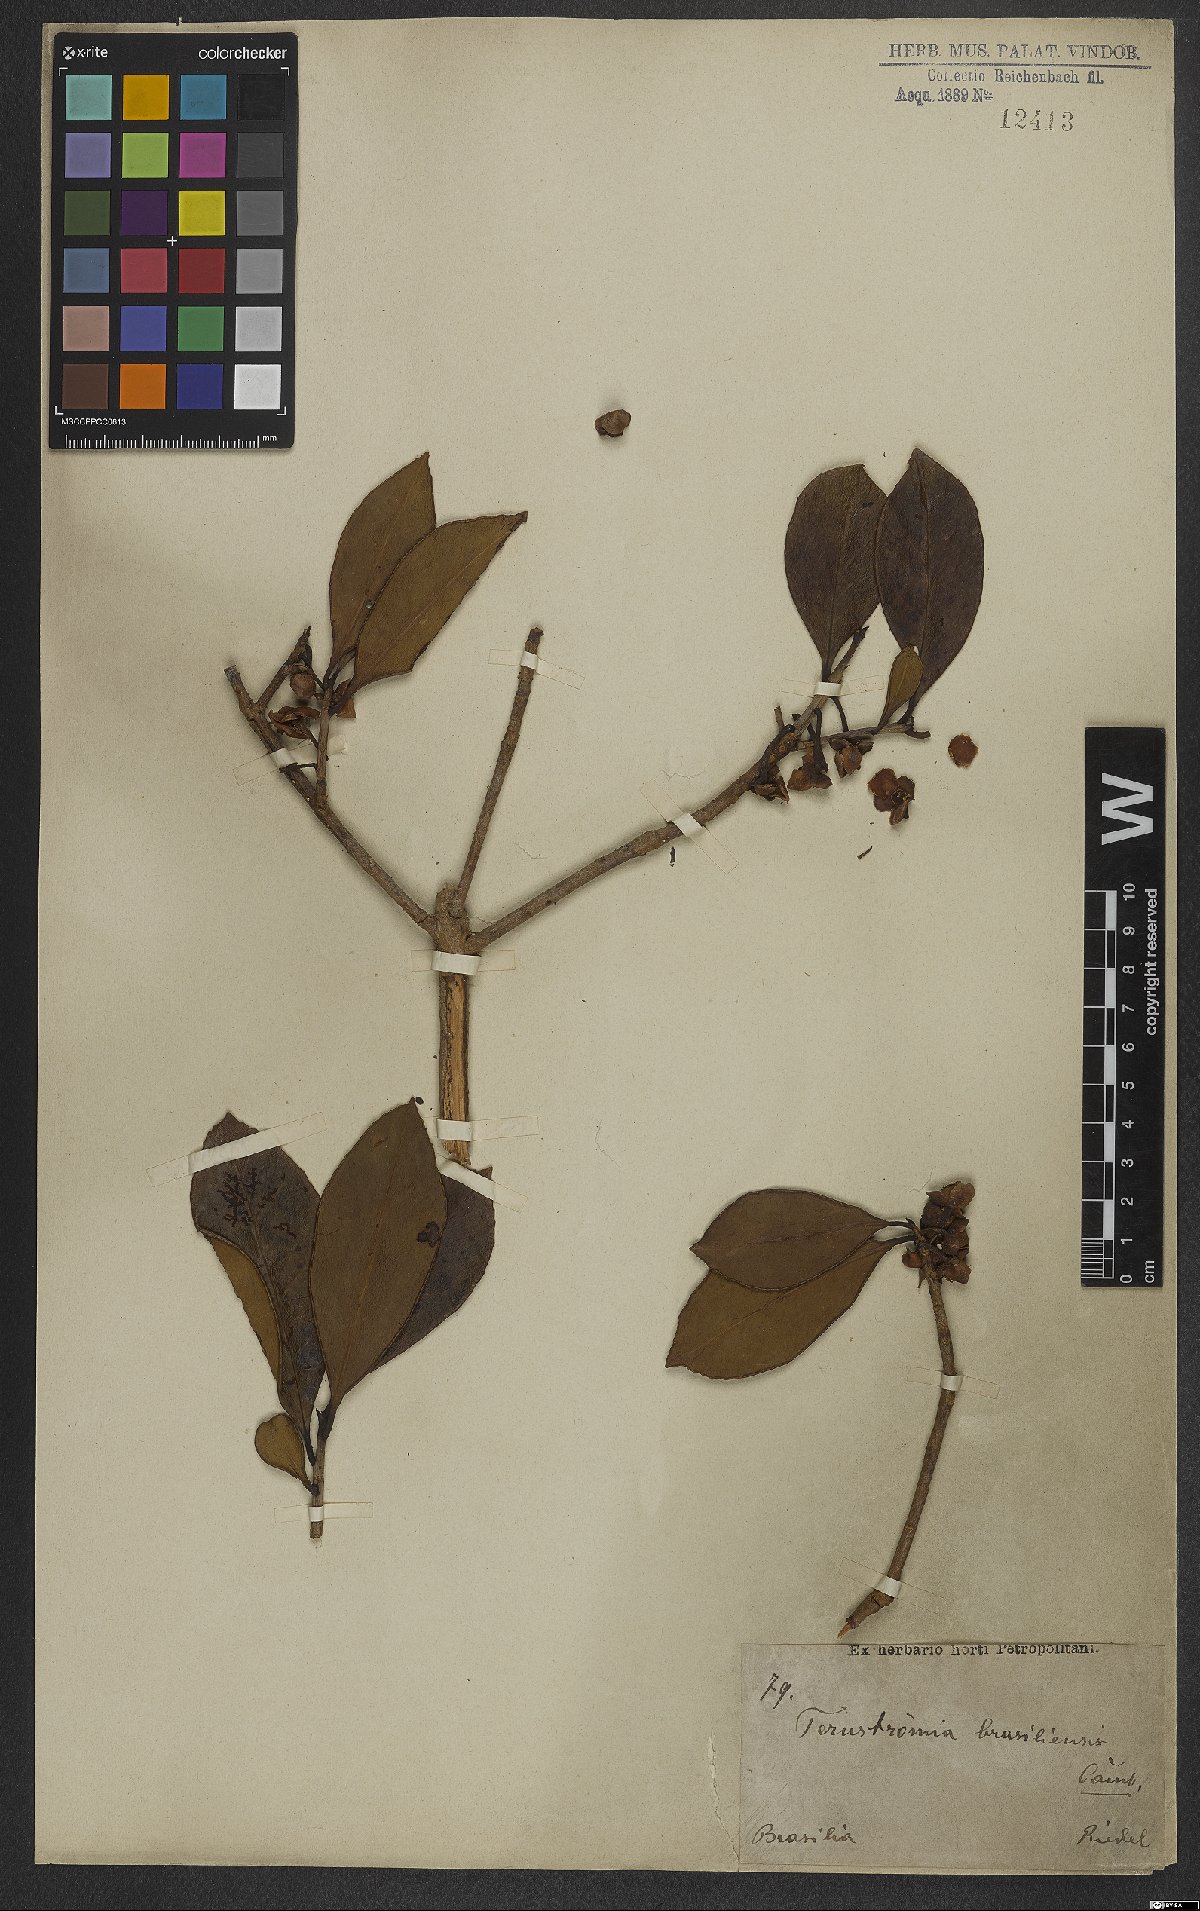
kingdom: Plantae
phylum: Tracheophyta
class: Magnoliopsida
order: Ericales
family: Pentaphylacaceae
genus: Ternstroemia
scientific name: Ternstroemia brasiliensis
